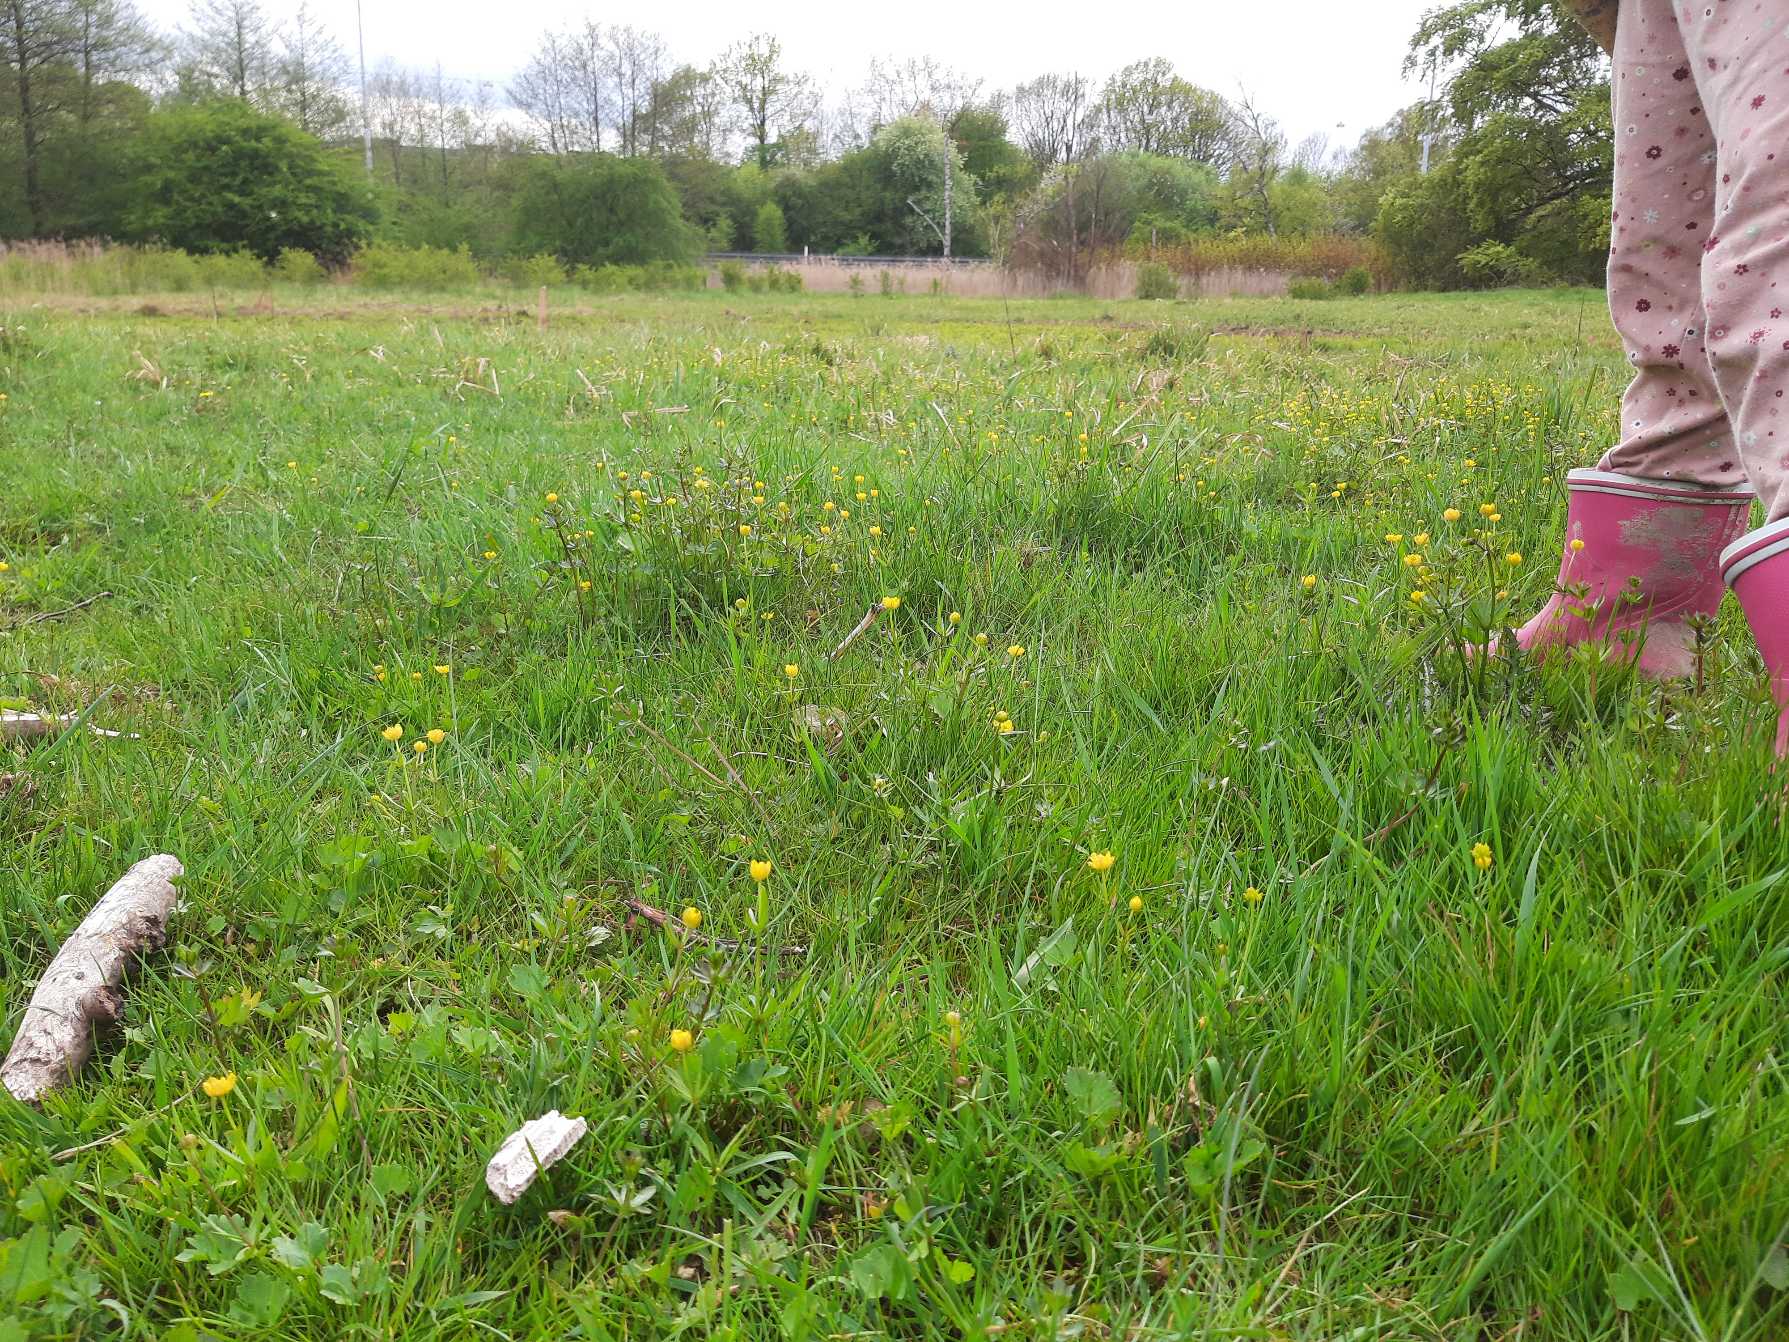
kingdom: Plantae
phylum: Tracheophyta
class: Magnoliopsida
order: Ranunculales
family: Ranunculaceae
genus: Ranunculus
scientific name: Ranunculus auricomus
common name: Nyrebladet ranunkel
